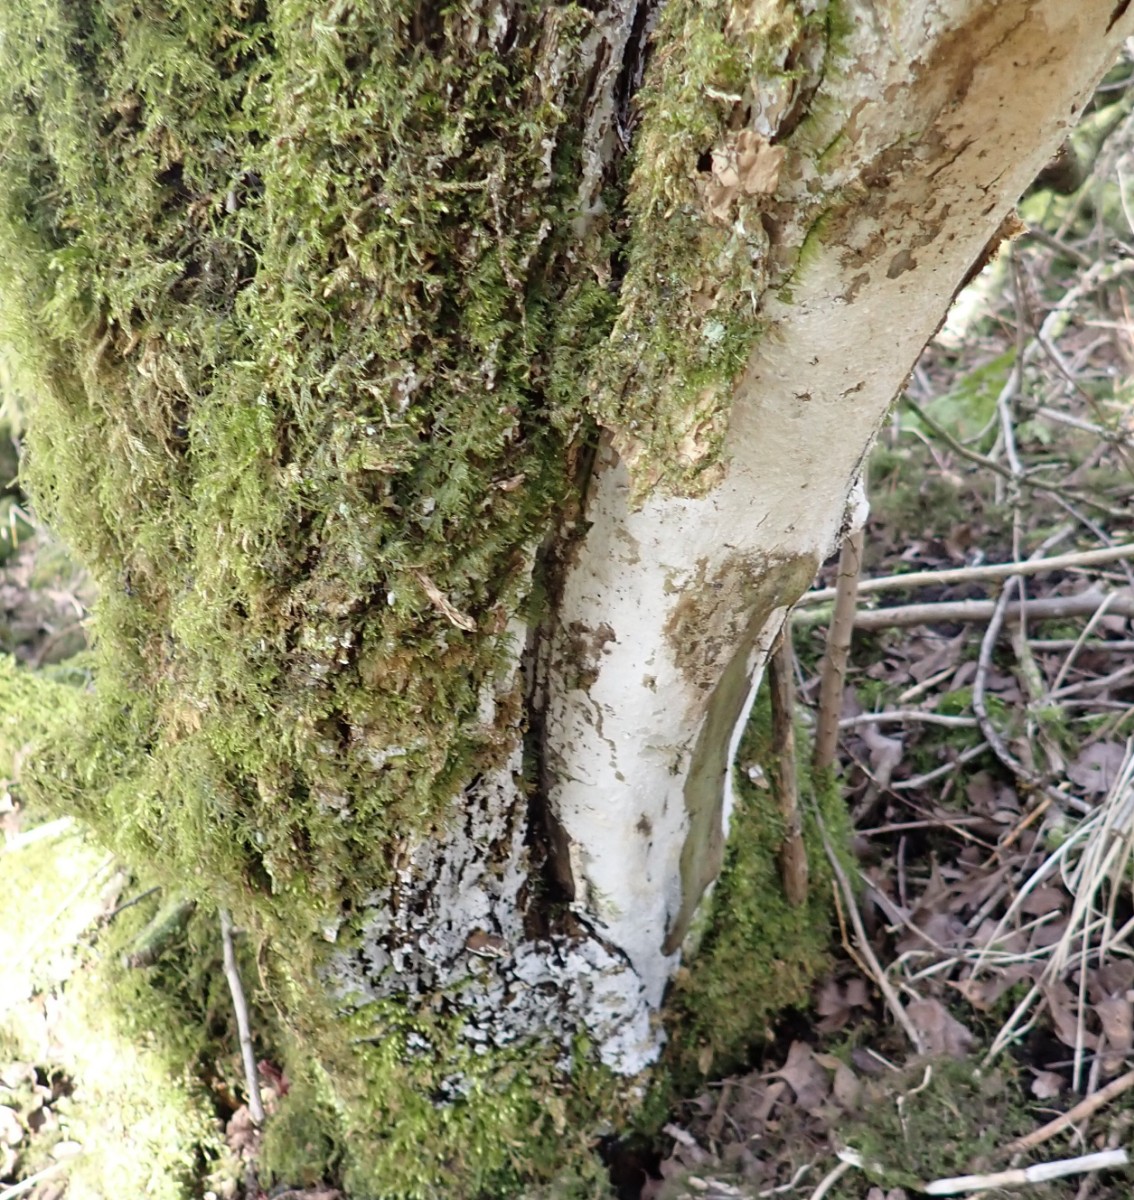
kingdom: Fungi
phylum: Basidiomycota
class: Agaricomycetes
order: Corticiales
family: Corticiaceae
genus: Lyomyces
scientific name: Lyomyces sambuci
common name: almindelig hyldehinde
